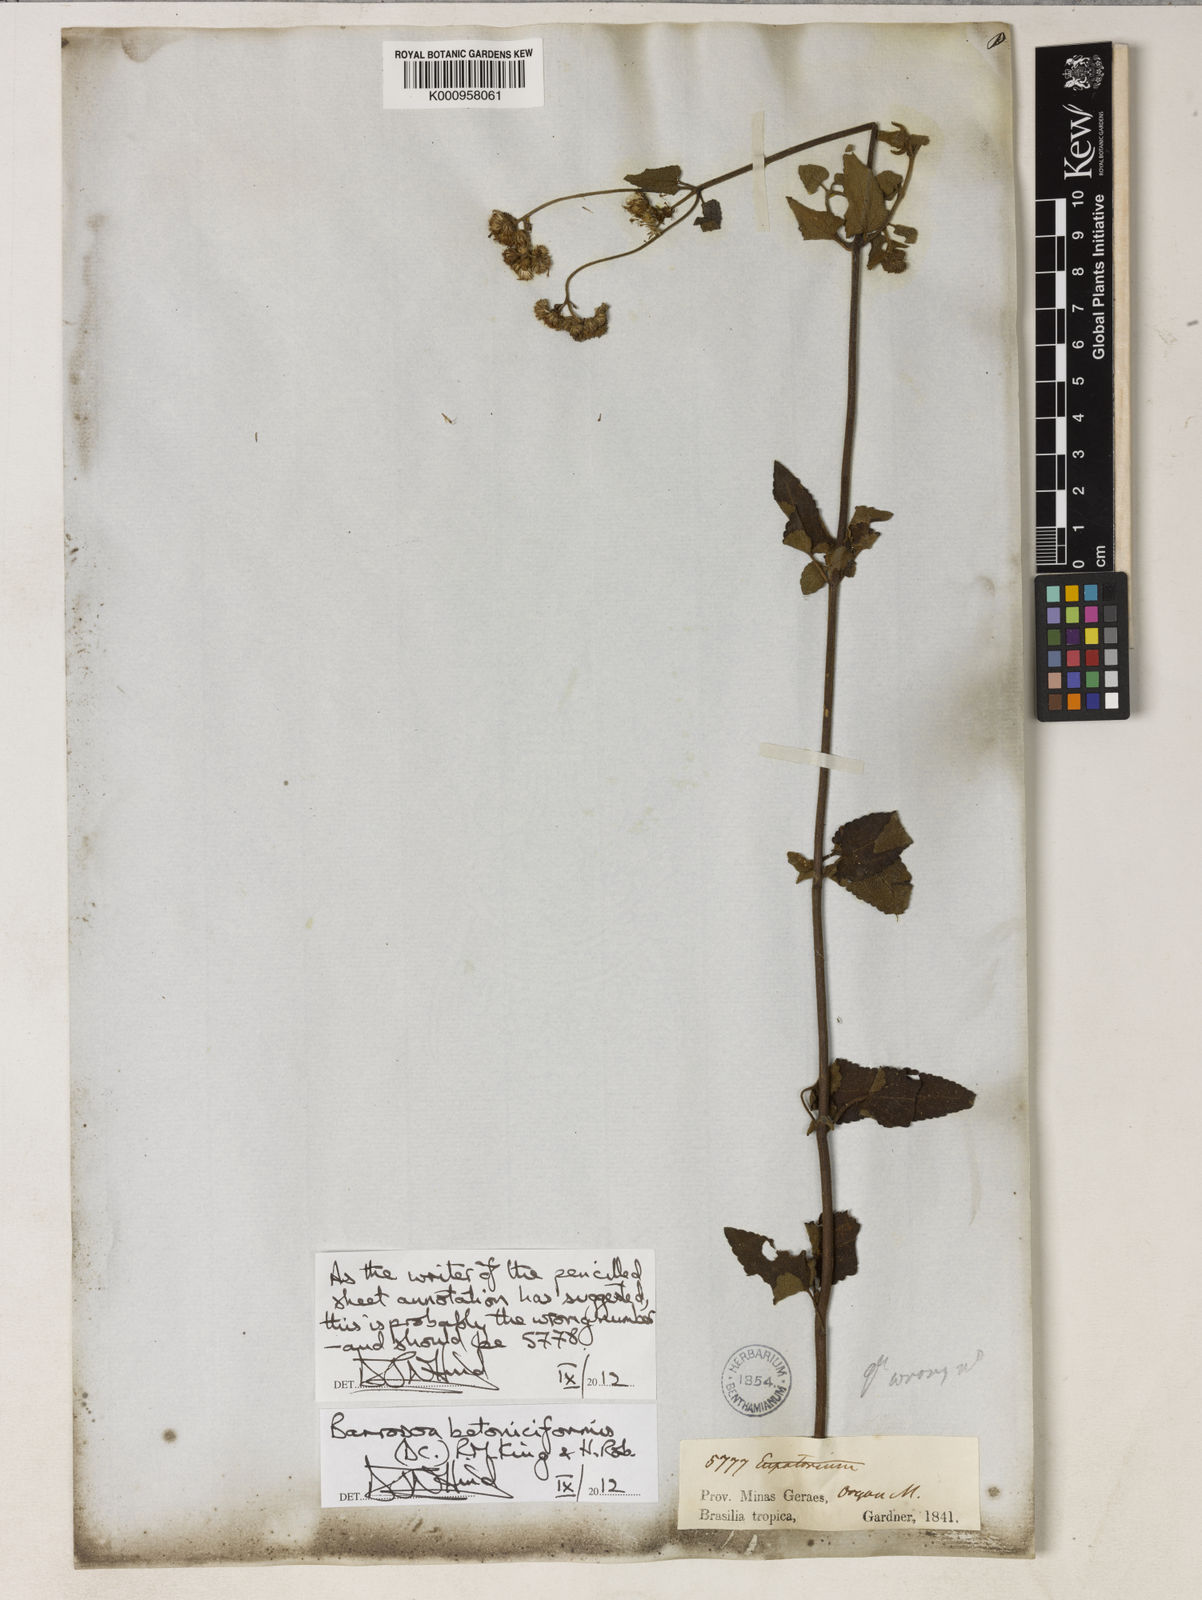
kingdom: Plantae
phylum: Tracheophyta
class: Magnoliopsida
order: Asterales
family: Asteraceae
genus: Barrosoa
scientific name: Barrosoa betoniciformis
